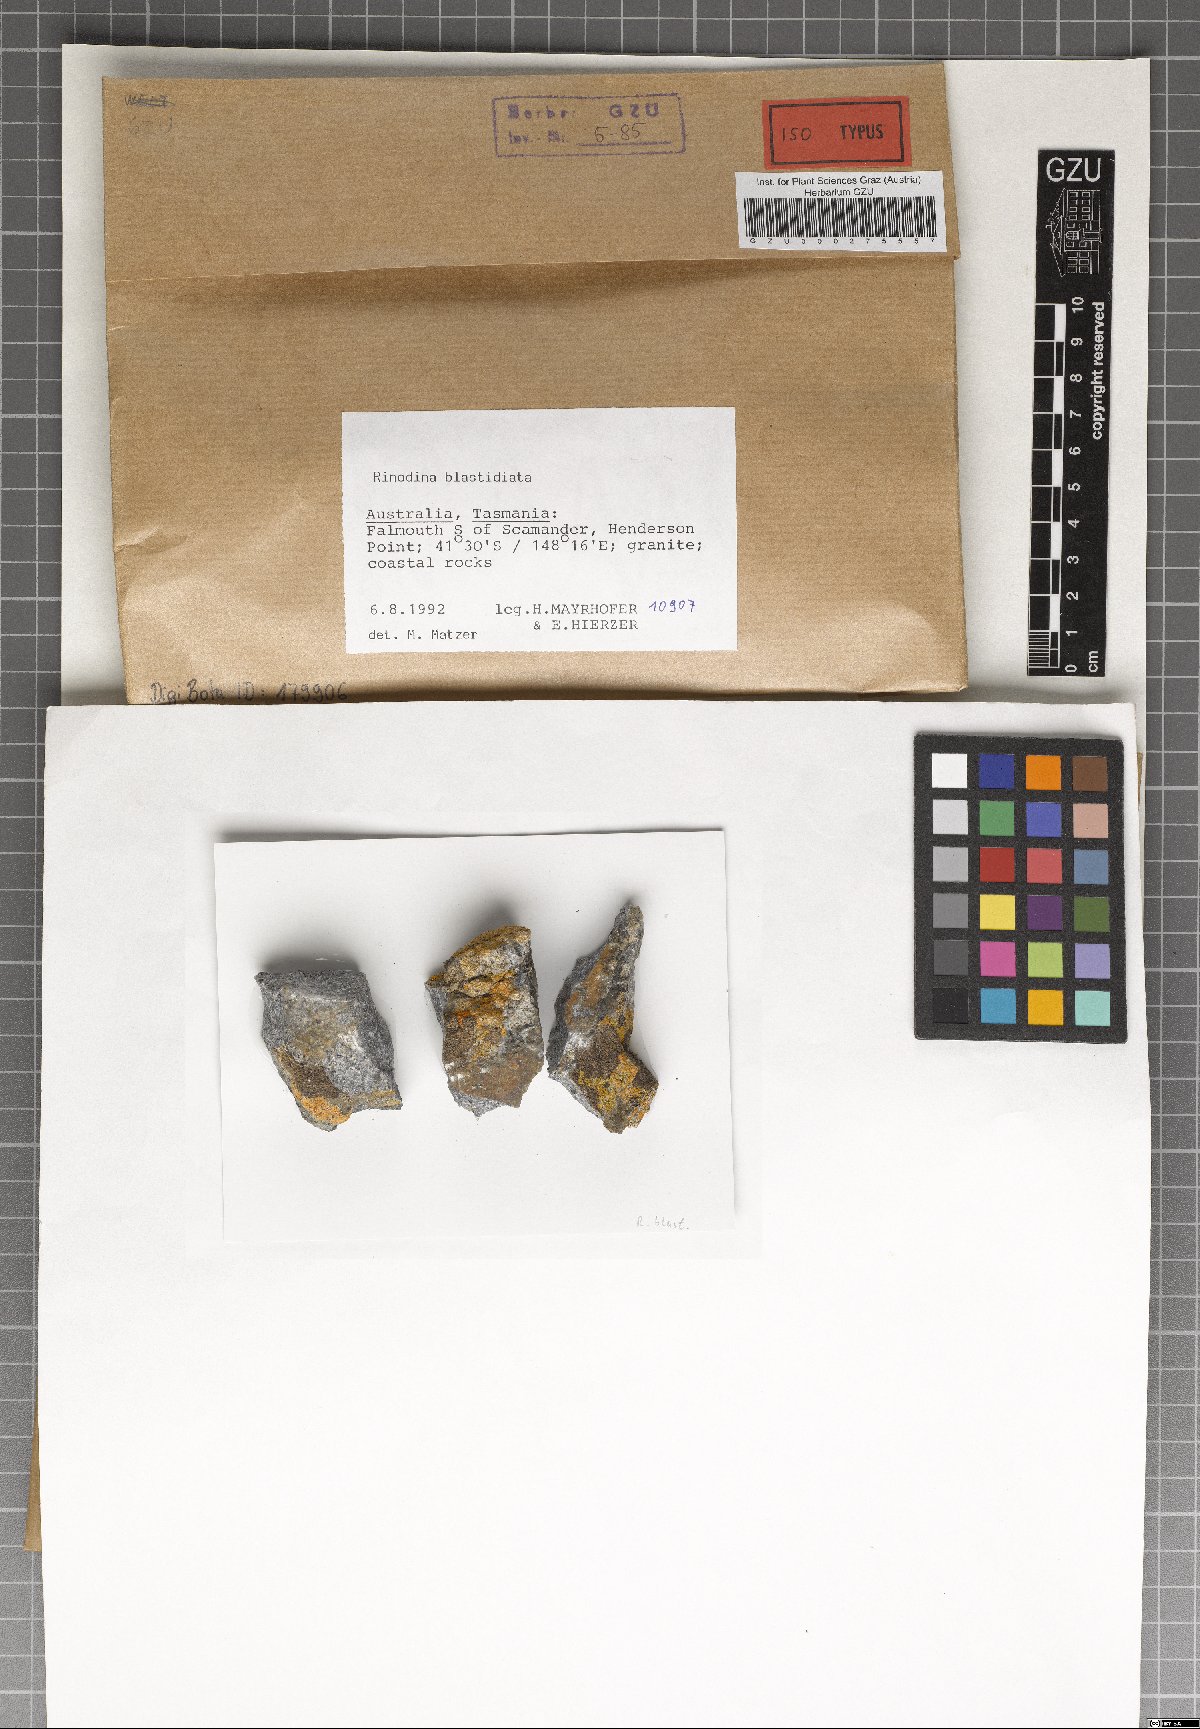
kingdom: Fungi
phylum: Ascomycota
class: Lecanoromycetes
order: Caliciales
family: Physciaceae
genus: Rinodina
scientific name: Rinodina blastidiata
